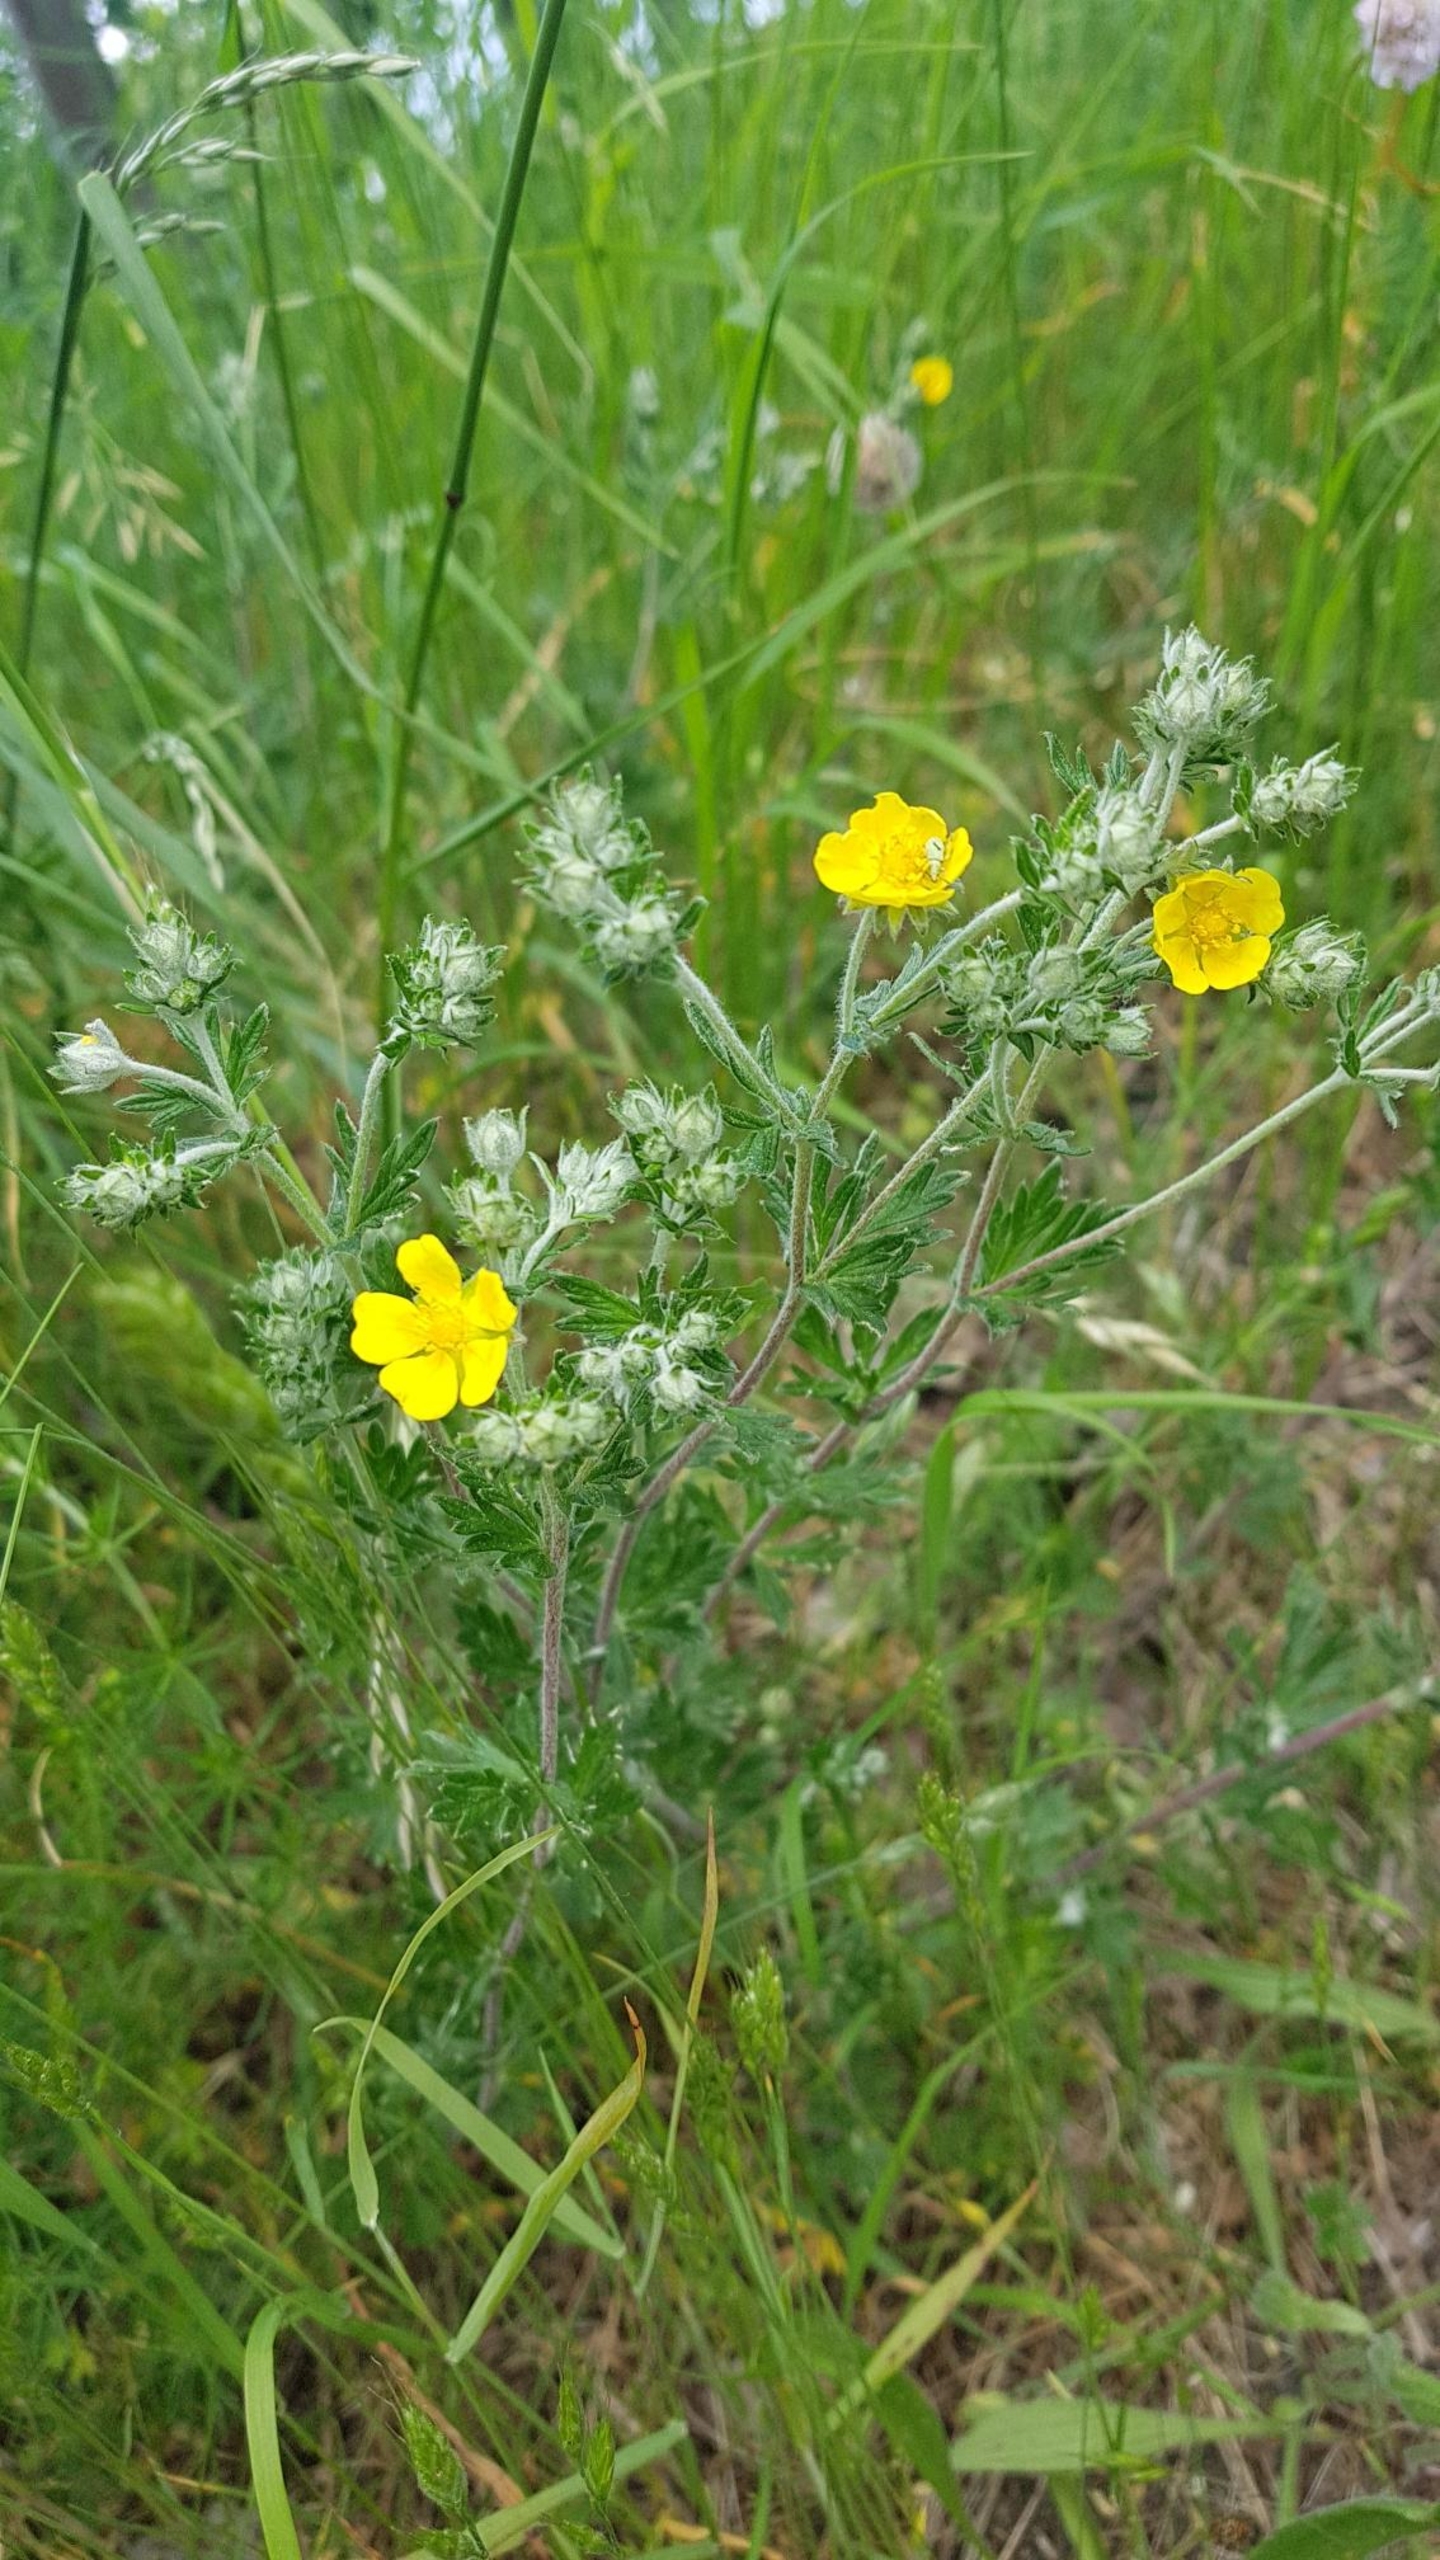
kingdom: Plantae
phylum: Tracheophyta
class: Magnoliopsida
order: Rosales
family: Rosaceae
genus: Potentilla
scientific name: Potentilla argentea
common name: Sølv-potentil
